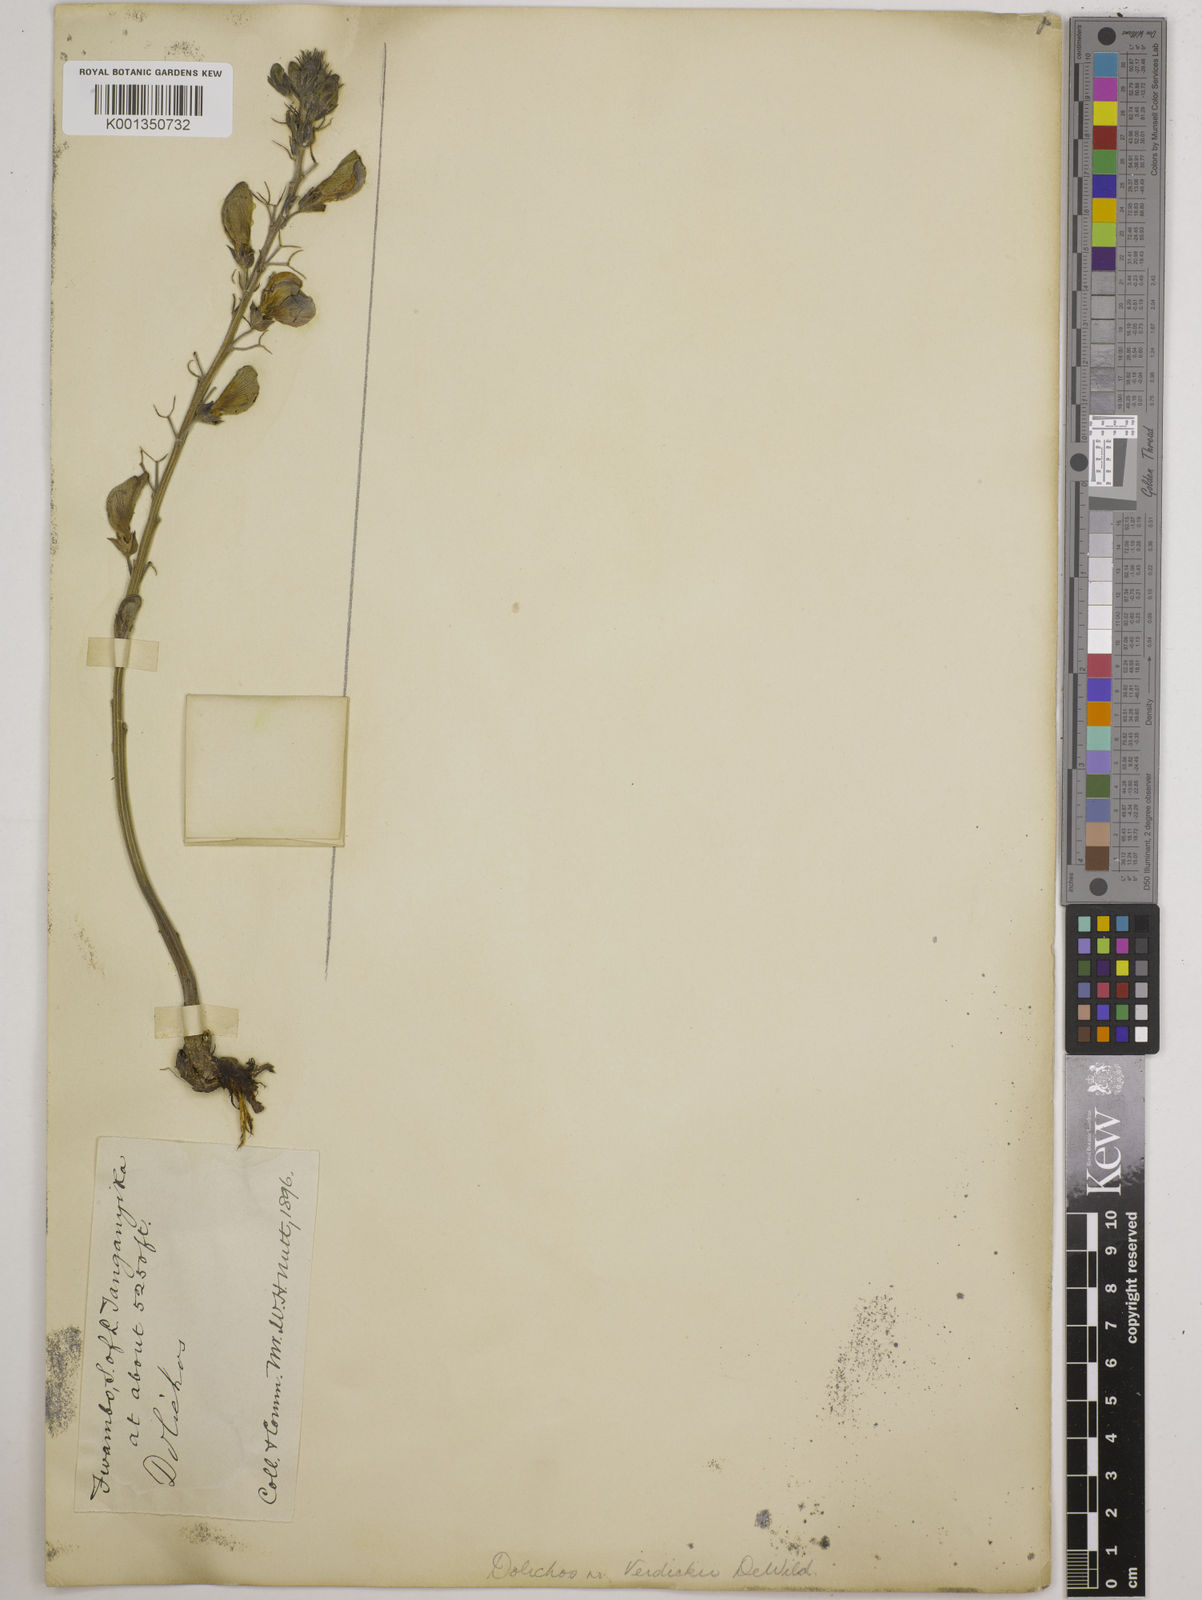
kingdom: Plantae
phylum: Tracheophyta
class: Magnoliopsida
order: Fabales
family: Fabaceae
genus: Dolichos
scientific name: Dolichos
